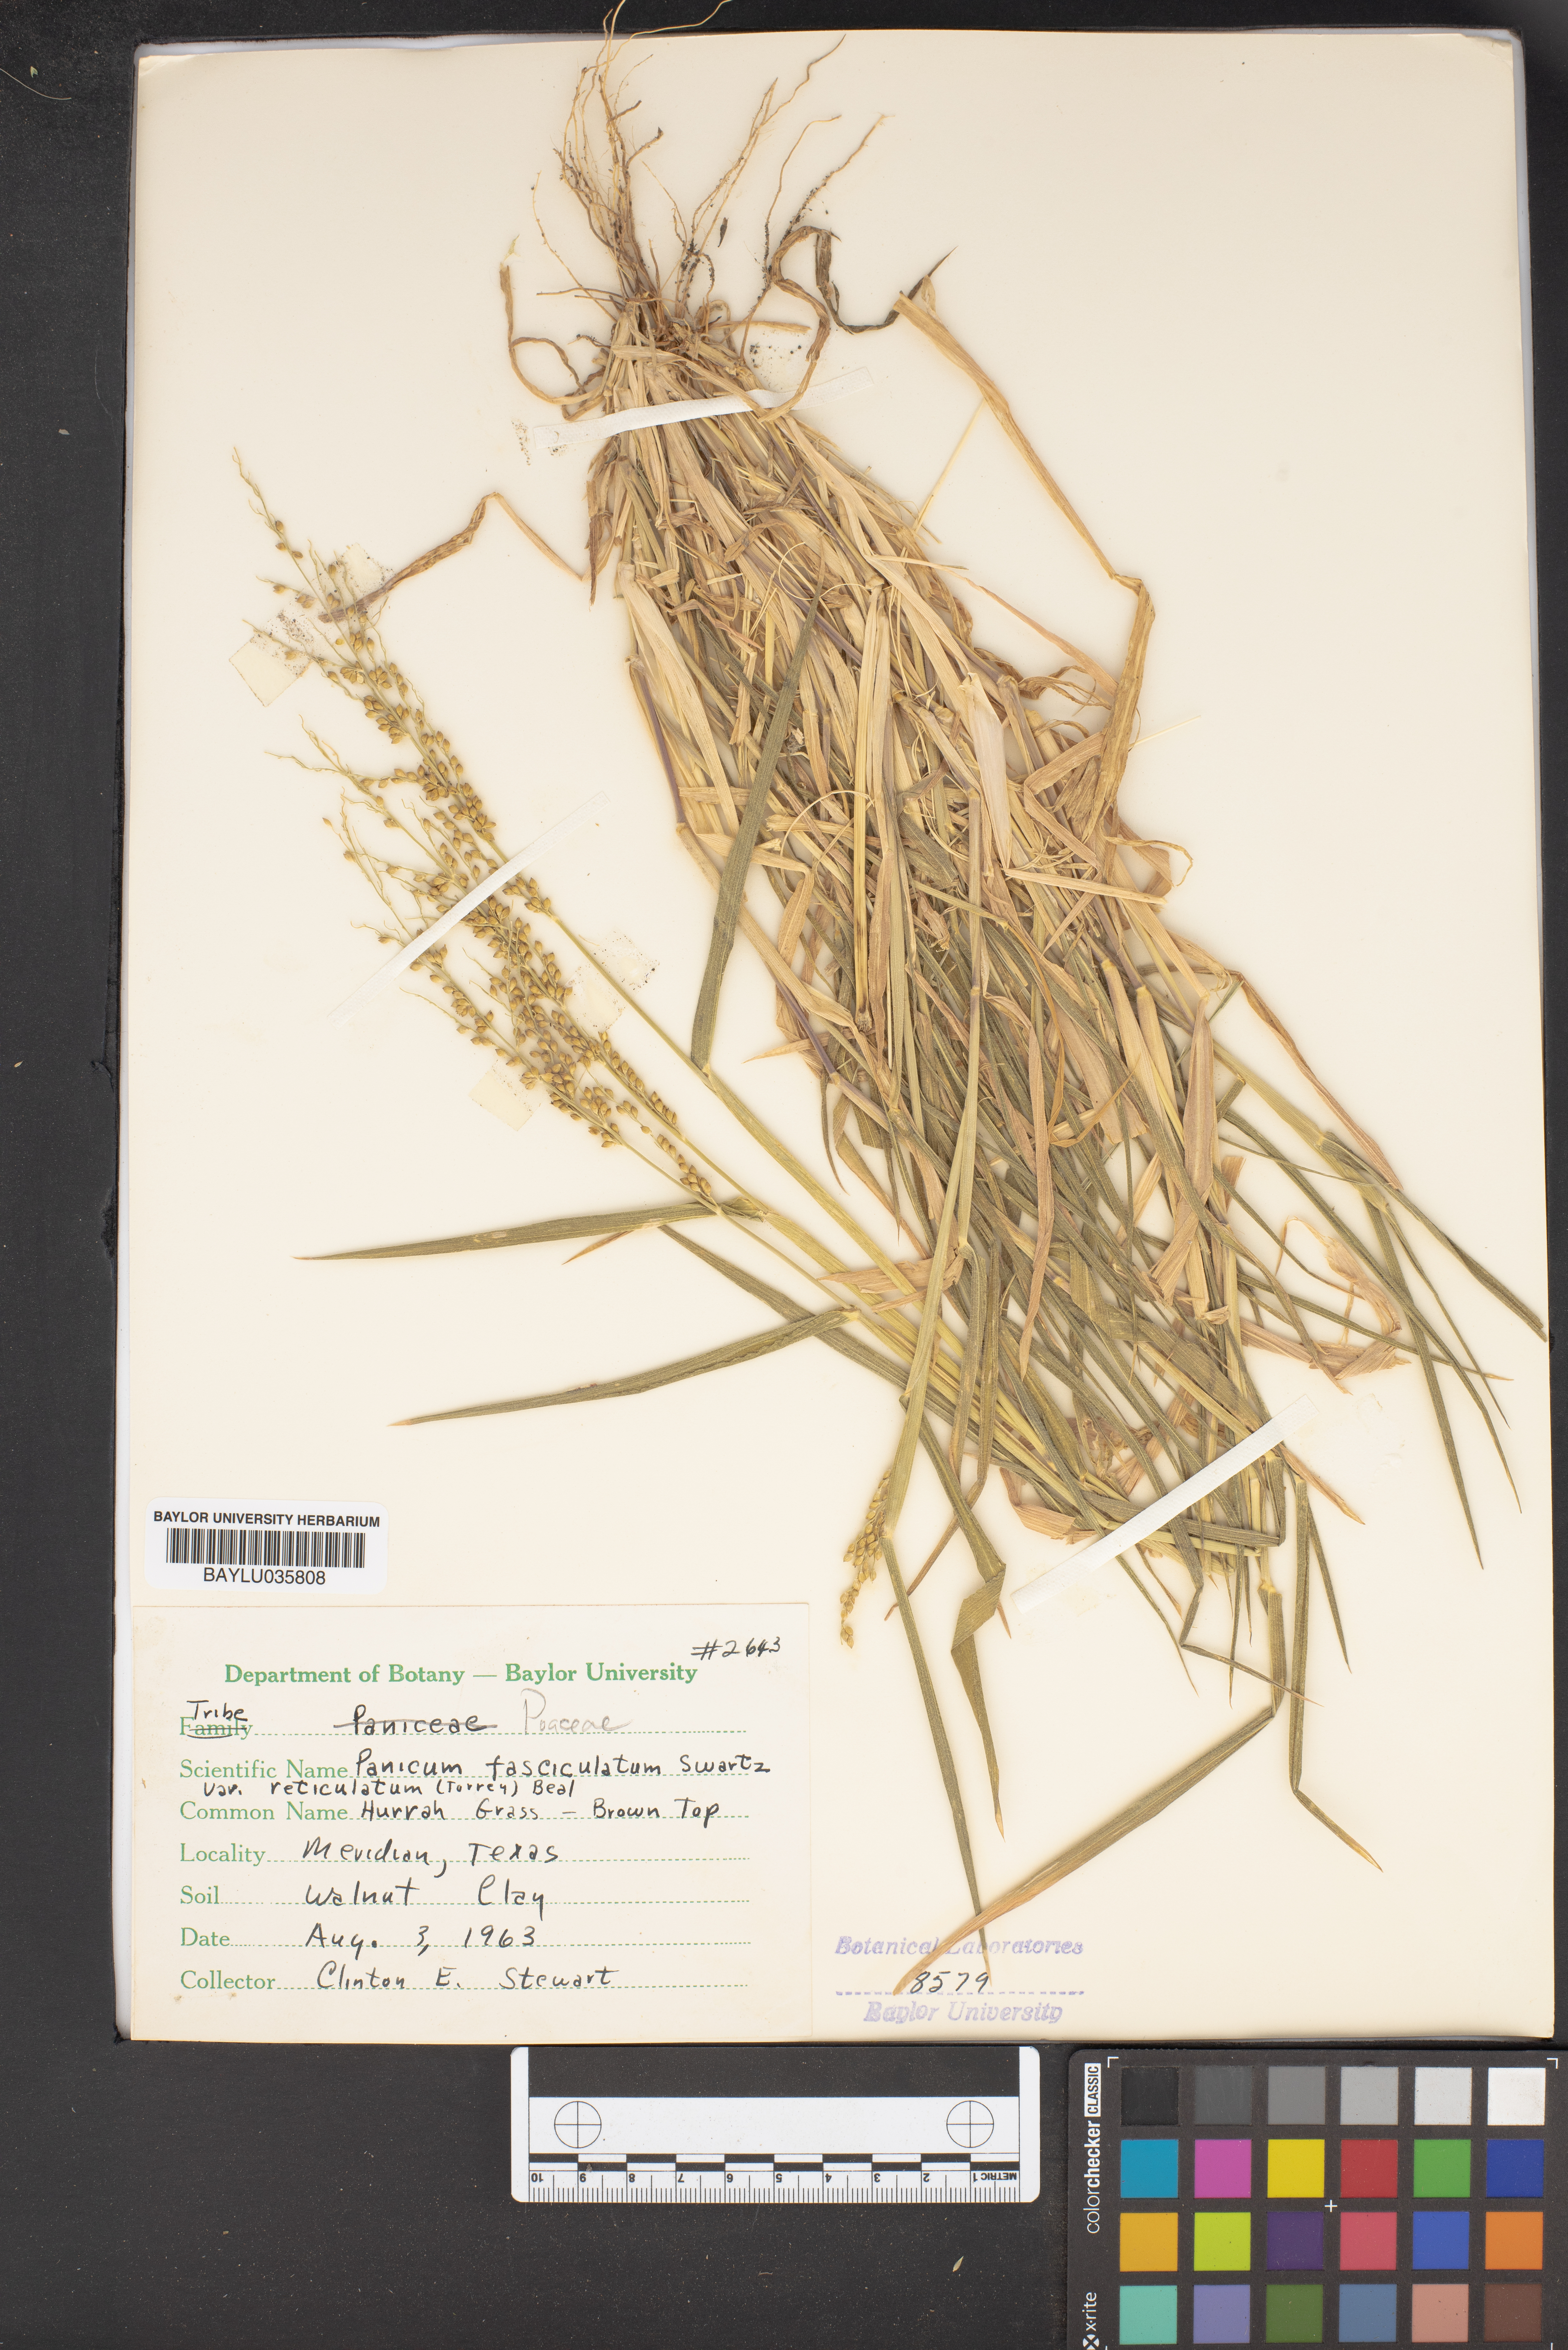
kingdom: Plantae
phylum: Tracheophyta
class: Liliopsida
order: Poales
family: Poaceae
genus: Urochloa
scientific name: Urochloa fusca
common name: Browntop signal grass
